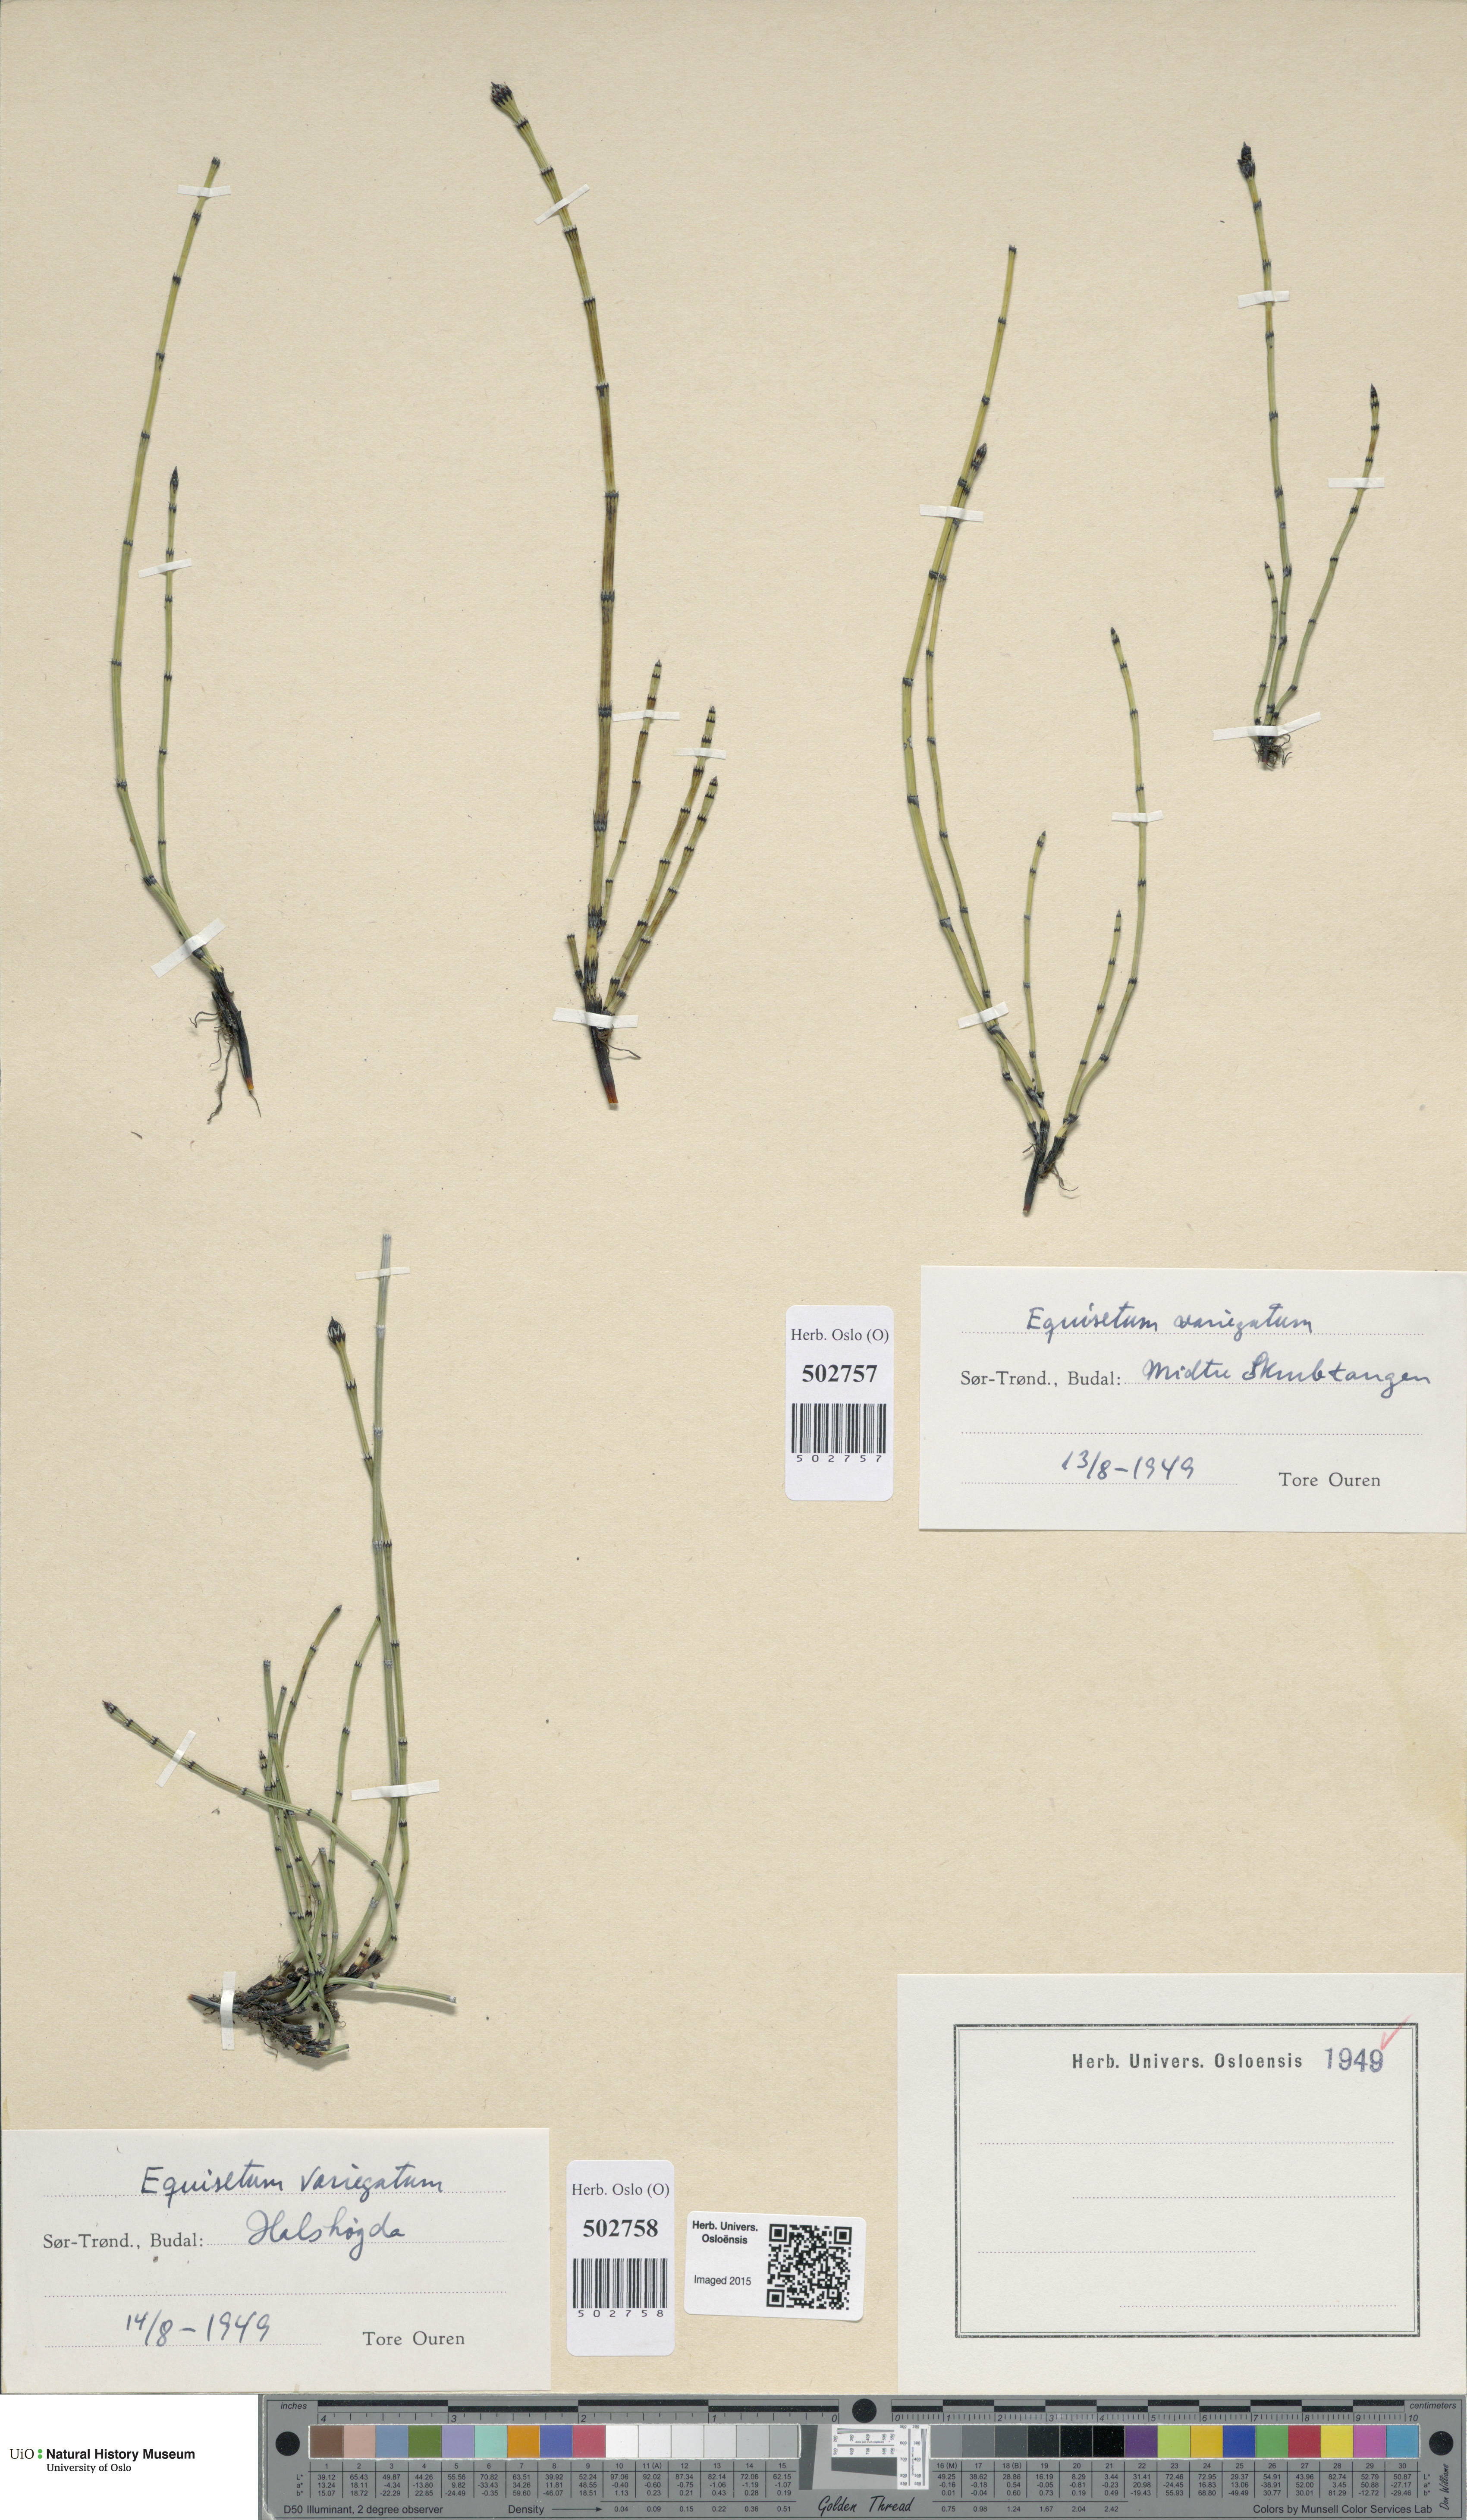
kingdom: Plantae
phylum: Tracheophyta
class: Polypodiopsida
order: Equisetales
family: Equisetaceae
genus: Equisetum
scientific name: Equisetum variegatum
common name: Variegated horsetail
